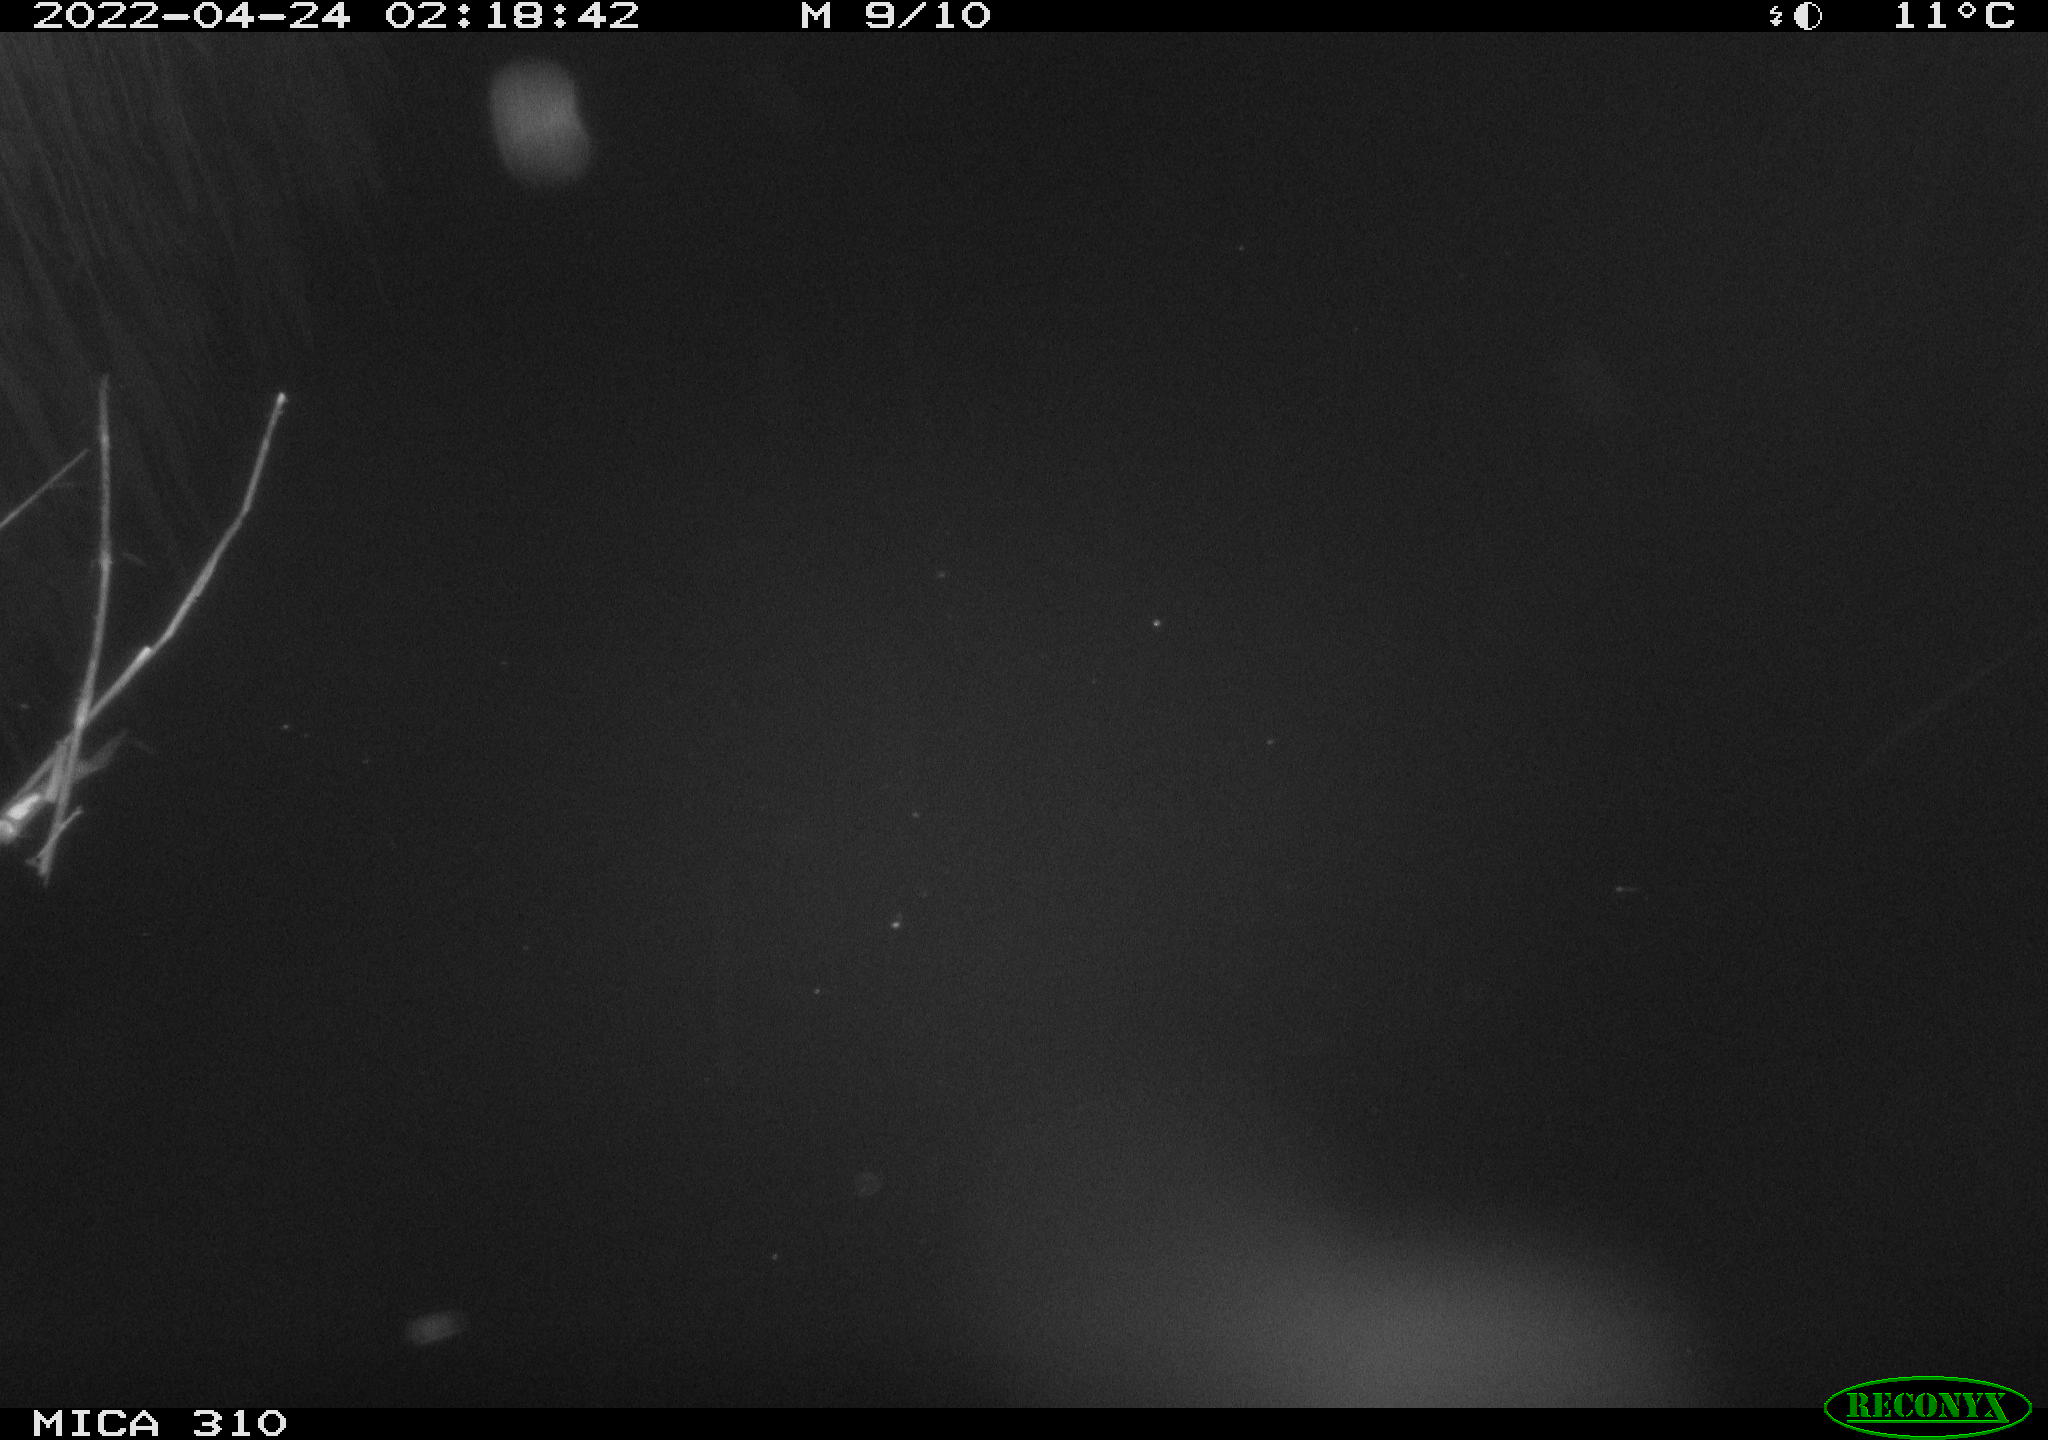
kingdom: Animalia
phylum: Chordata
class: Aves
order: Anseriformes
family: Anatidae
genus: Anas
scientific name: Anas platyrhynchos
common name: Mallard
